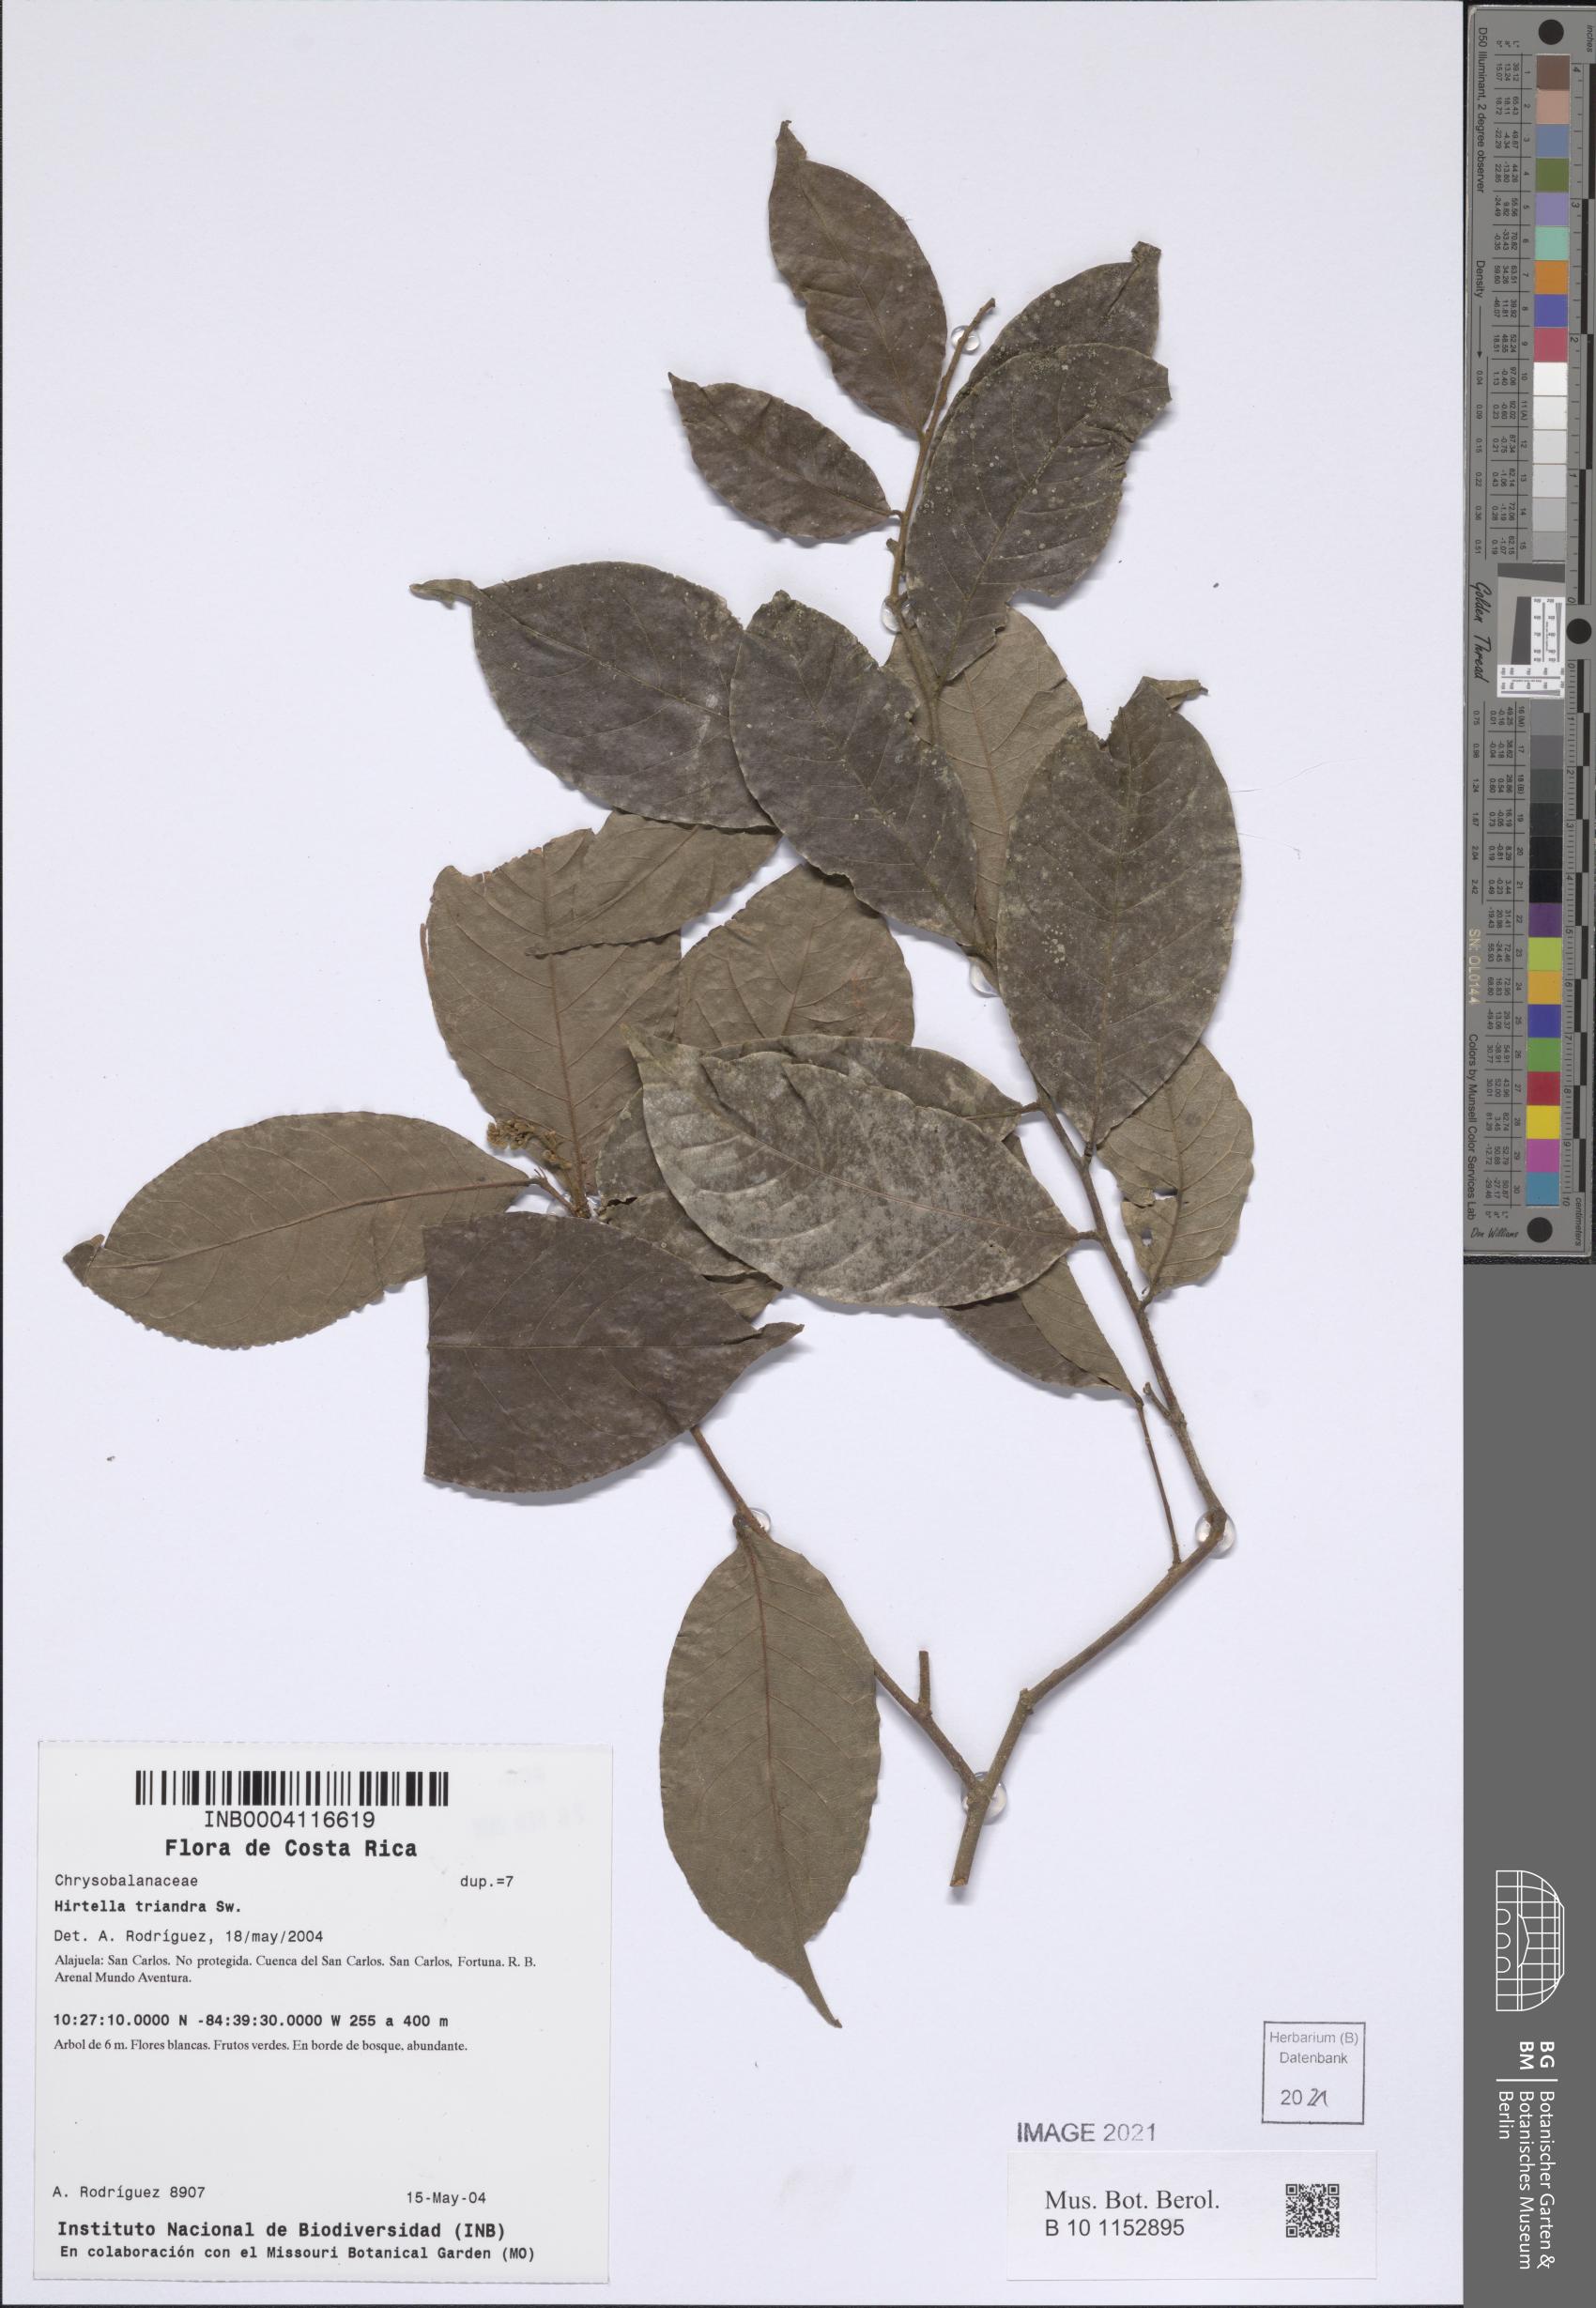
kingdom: Plantae
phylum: Tracheophyta
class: Magnoliopsida
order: Malpighiales
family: Chrysobalanaceae
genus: Hirtella
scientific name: Hirtella triandra
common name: Hairy plum
